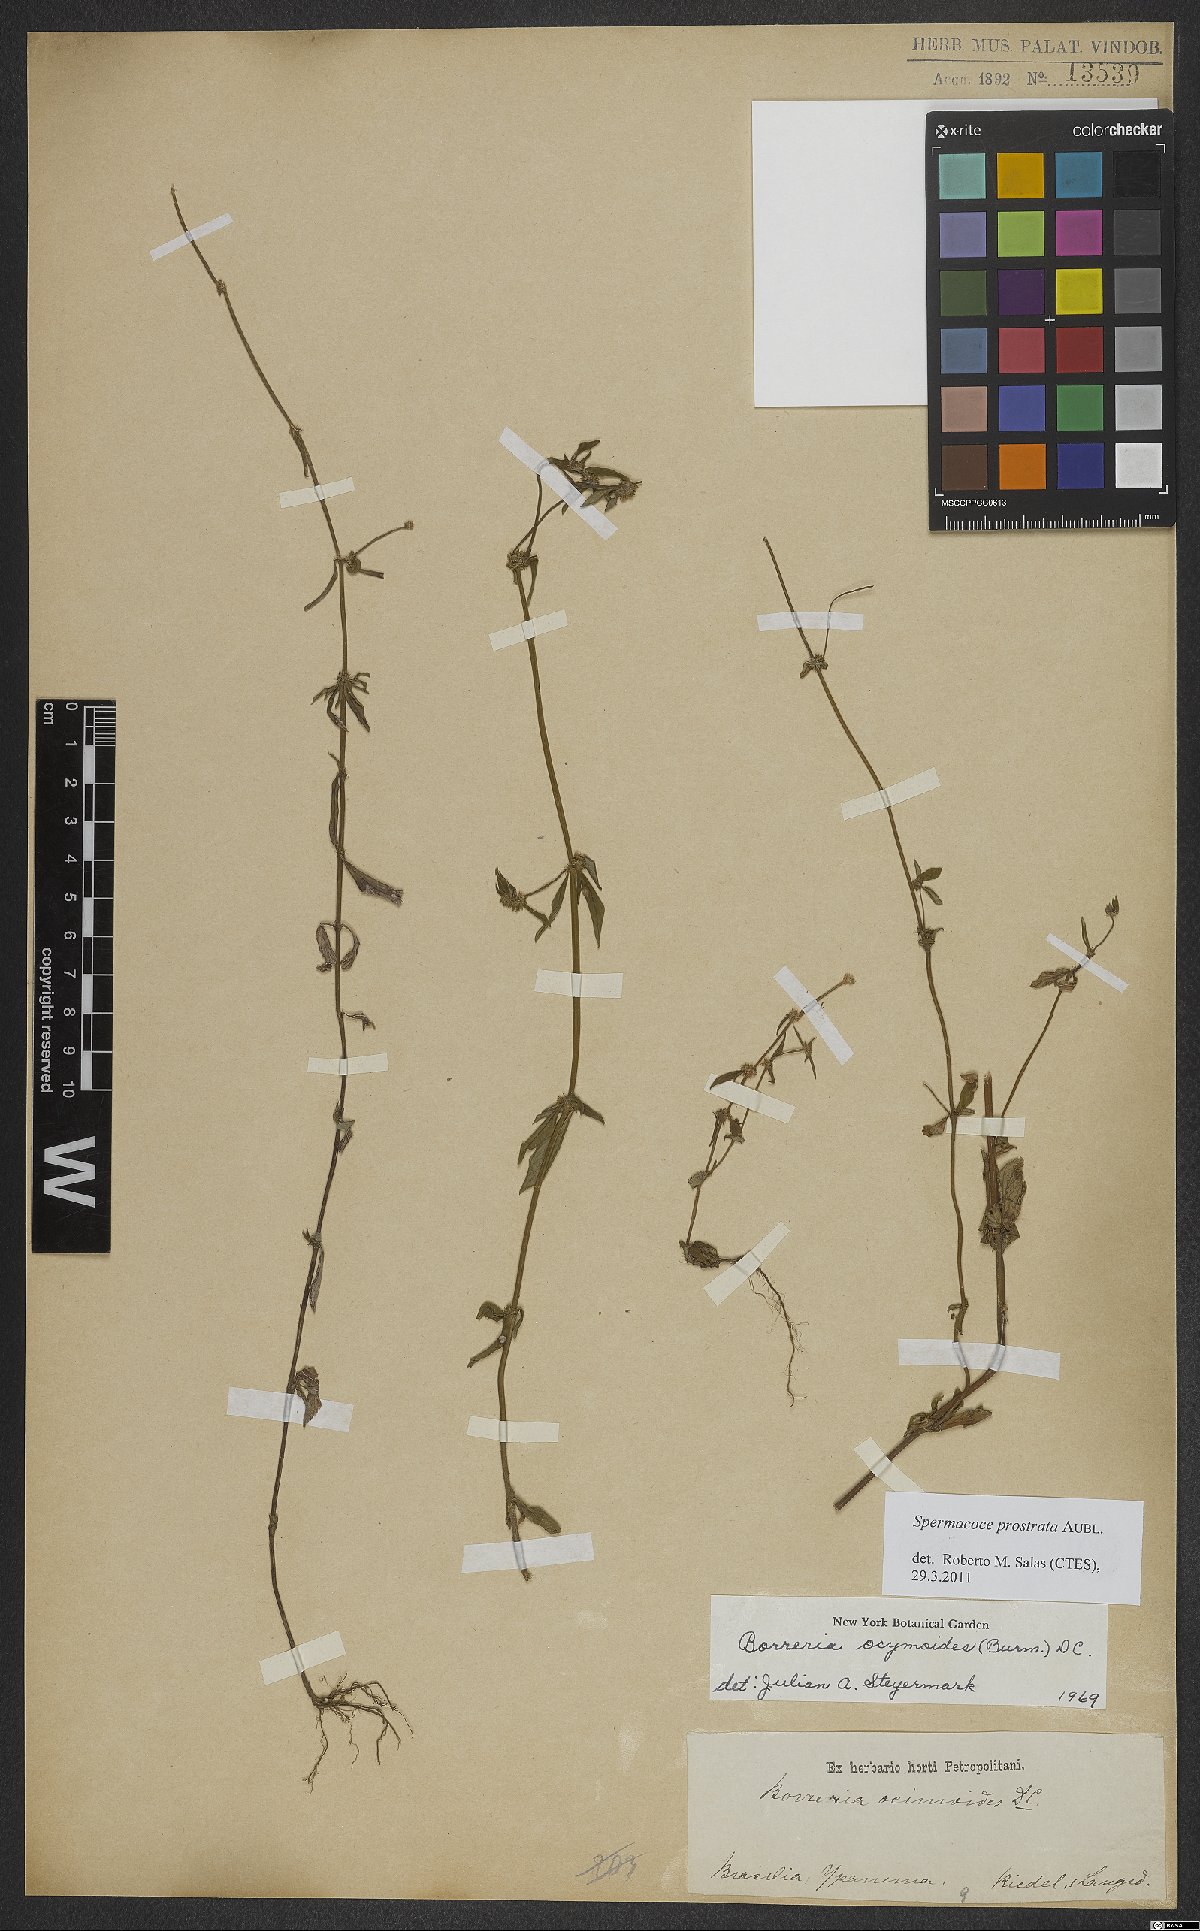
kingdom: Plantae
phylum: Tracheophyta
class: Magnoliopsida
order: Gentianales
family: Rubiaceae
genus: Spermacoce
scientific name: Spermacoce prostrata
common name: Prostrate false buttonweed
